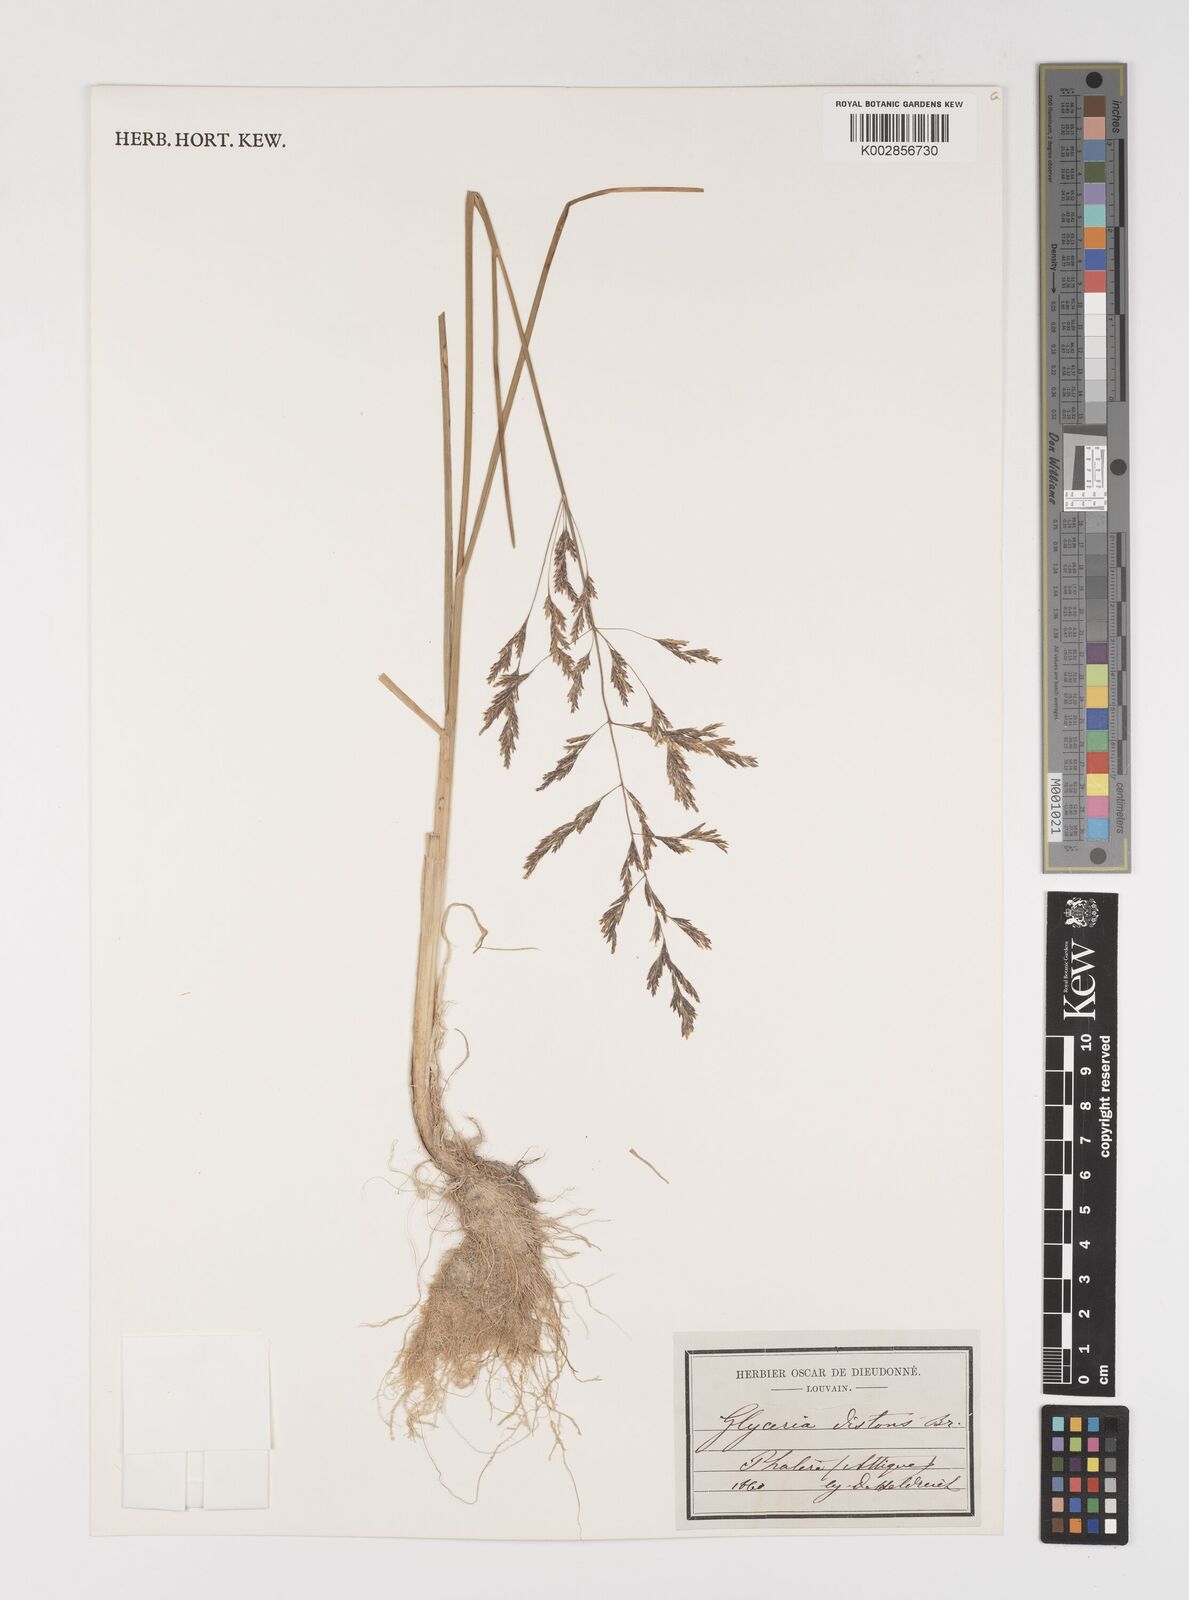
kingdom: Plantae
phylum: Tracheophyta
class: Liliopsida
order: Poales
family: Poaceae
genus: Puccinellia
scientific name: Puccinellia distans
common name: Weeping alkaligrass
